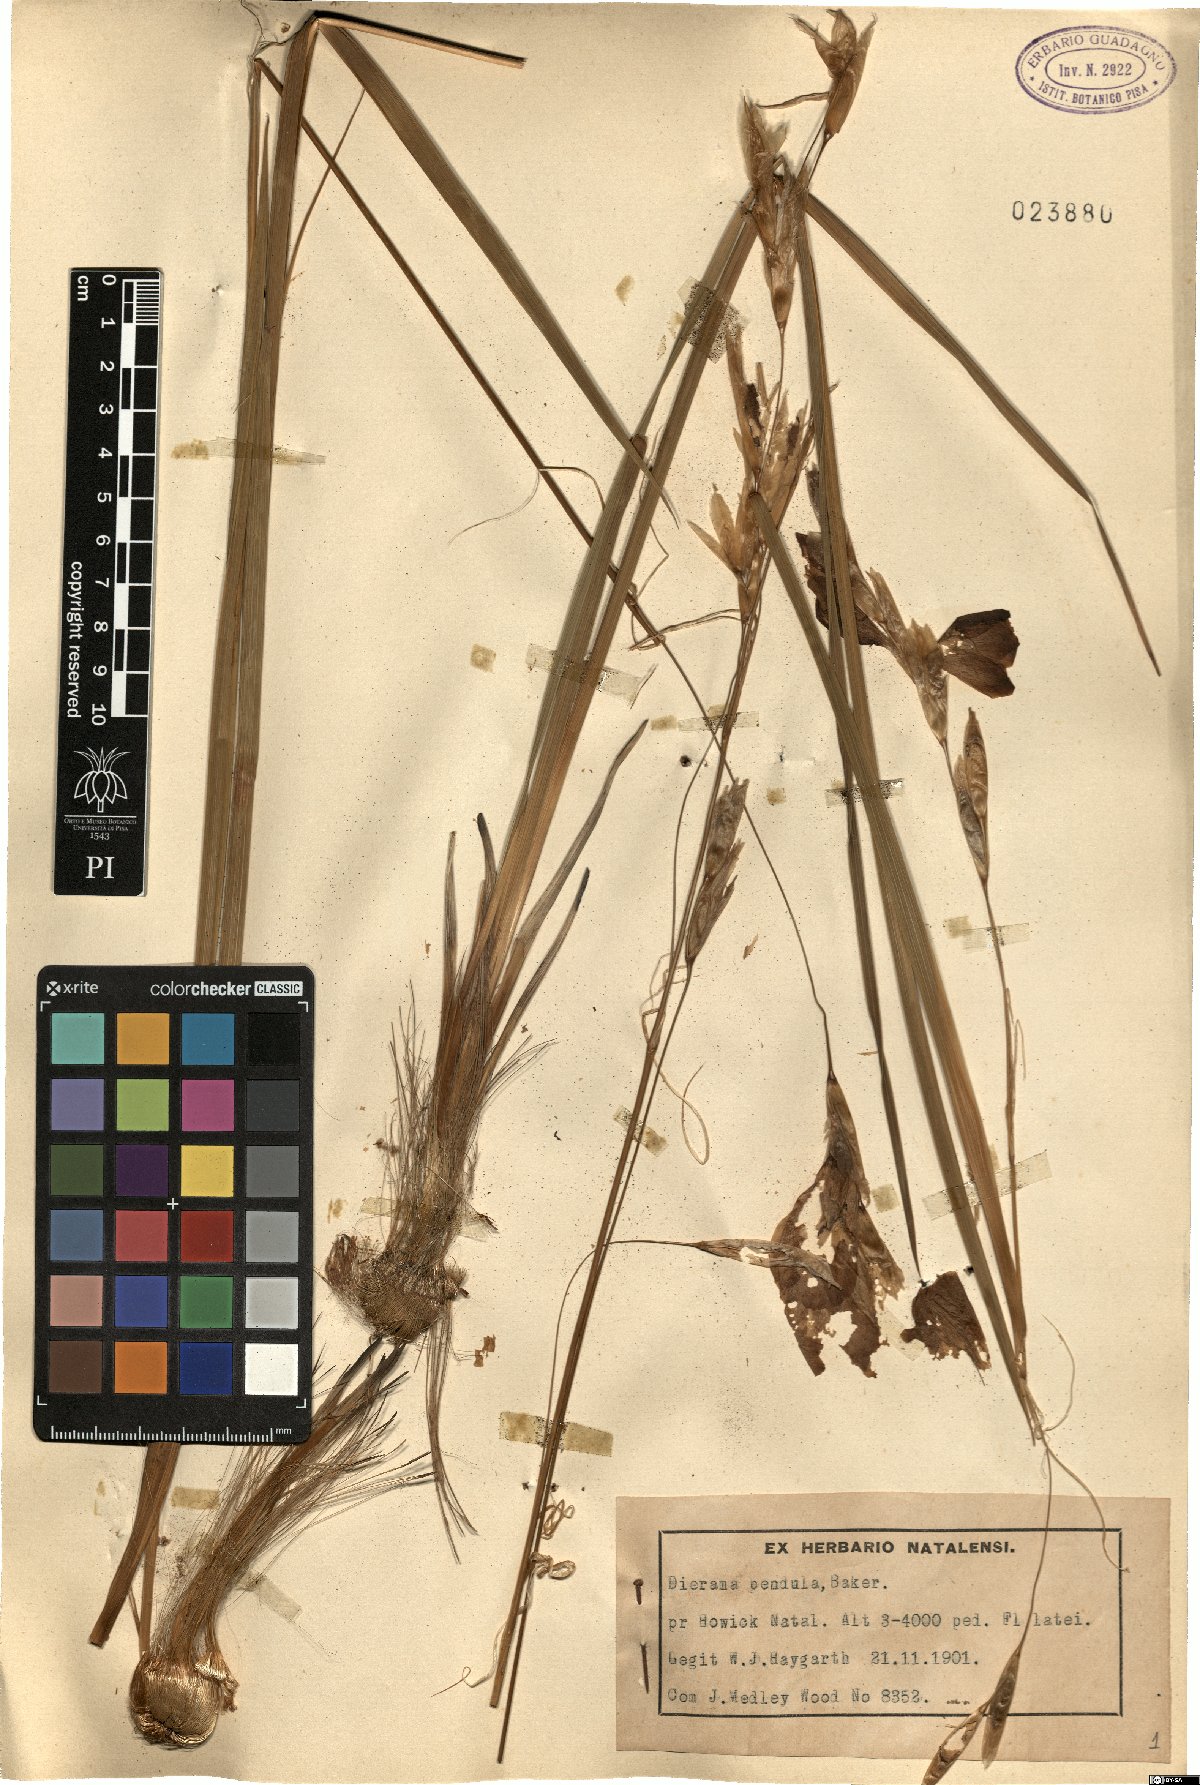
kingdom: Plantae
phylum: Tracheophyta
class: Liliopsida
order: Asparagales
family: Iridaceae
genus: Dierama
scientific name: Dierama pendulum
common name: Grassy-bell
